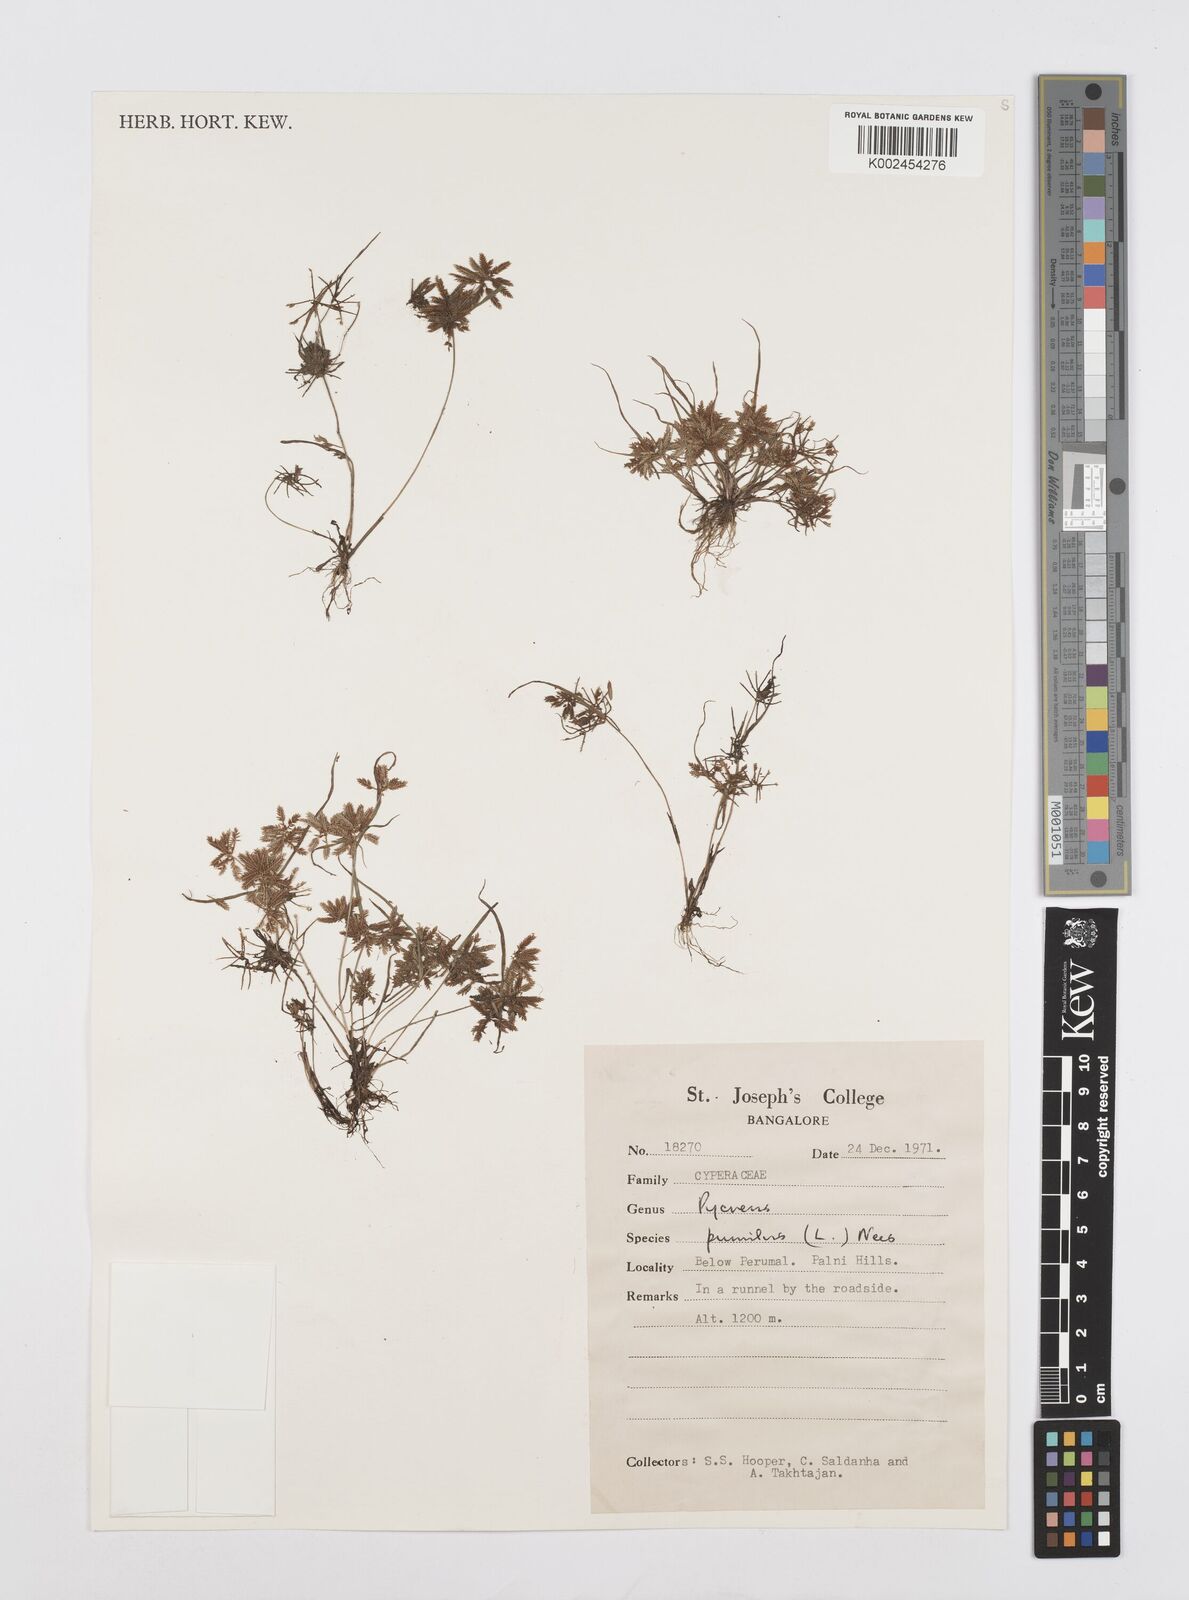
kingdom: Plantae
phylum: Tracheophyta
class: Liliopsida
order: Poales
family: Cyperaceae
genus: Cyperus
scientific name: Cyperus pumilus
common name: Low flatsedge
